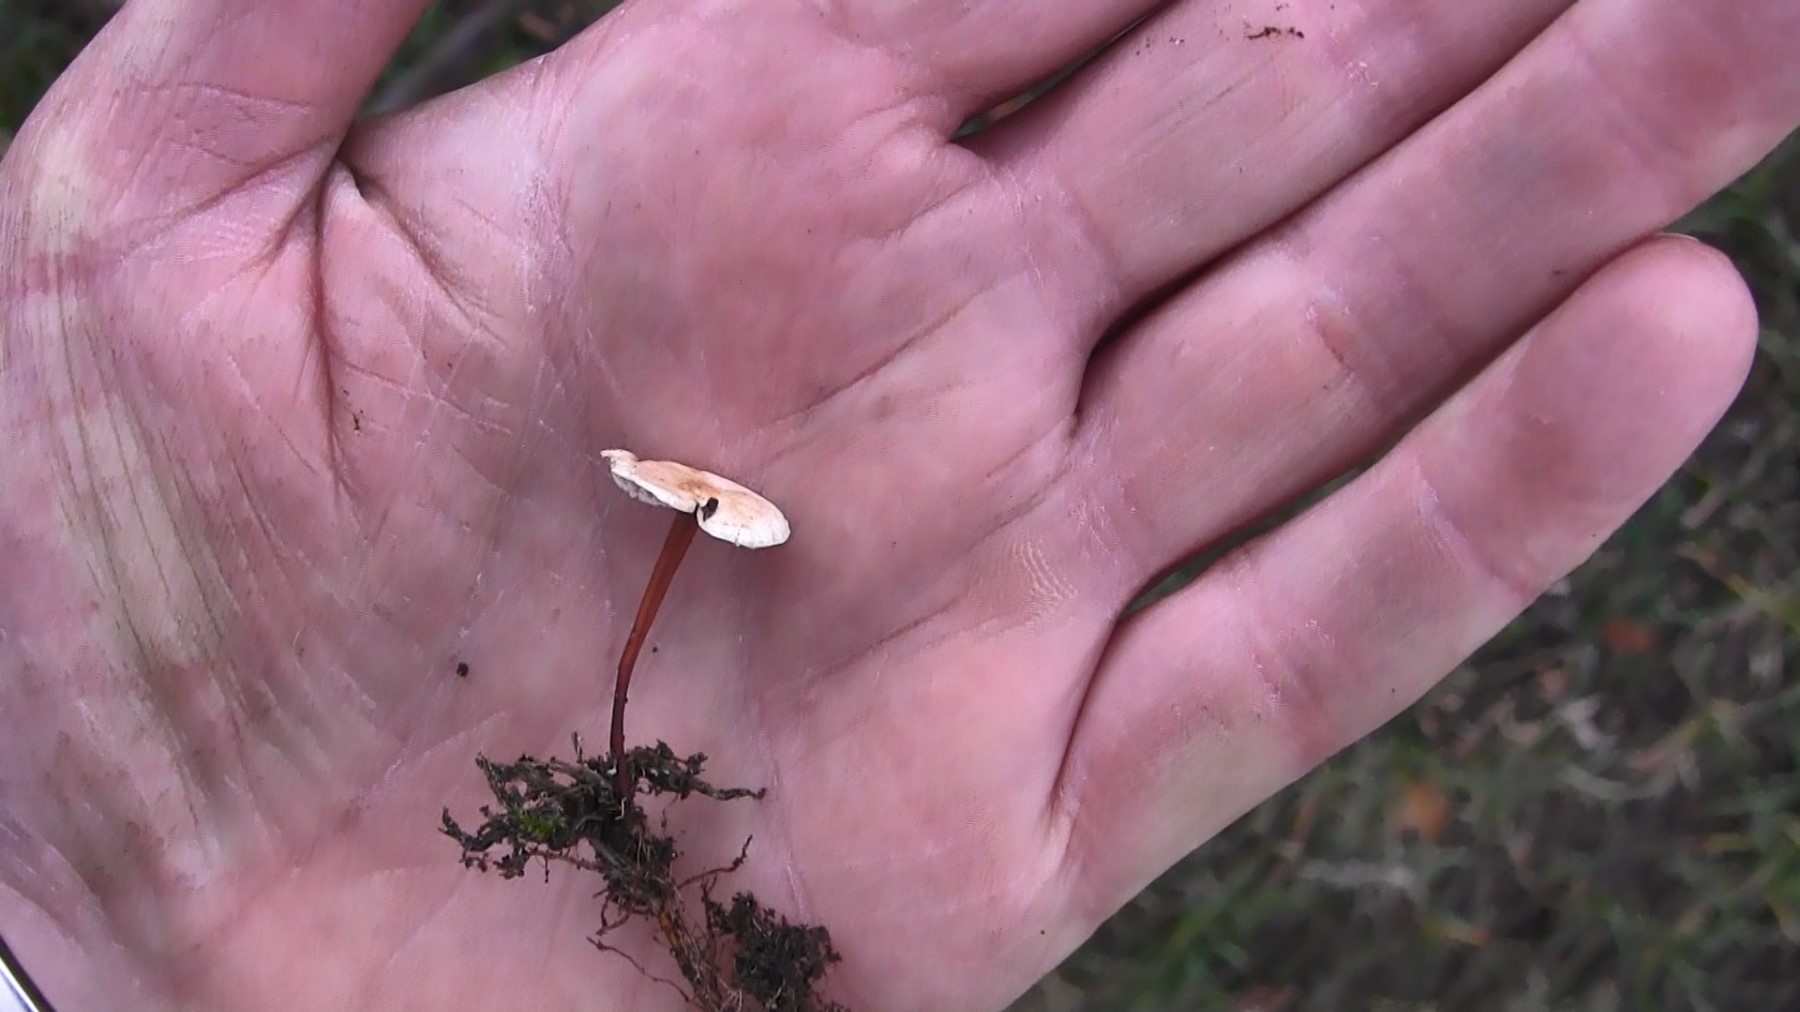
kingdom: Fungi
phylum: Basidiomycota
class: Agaricomycetes
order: Agaricales
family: Omphalotaceae
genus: Mycetinis
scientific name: Mycetinis scorodonius
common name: lille løghat
